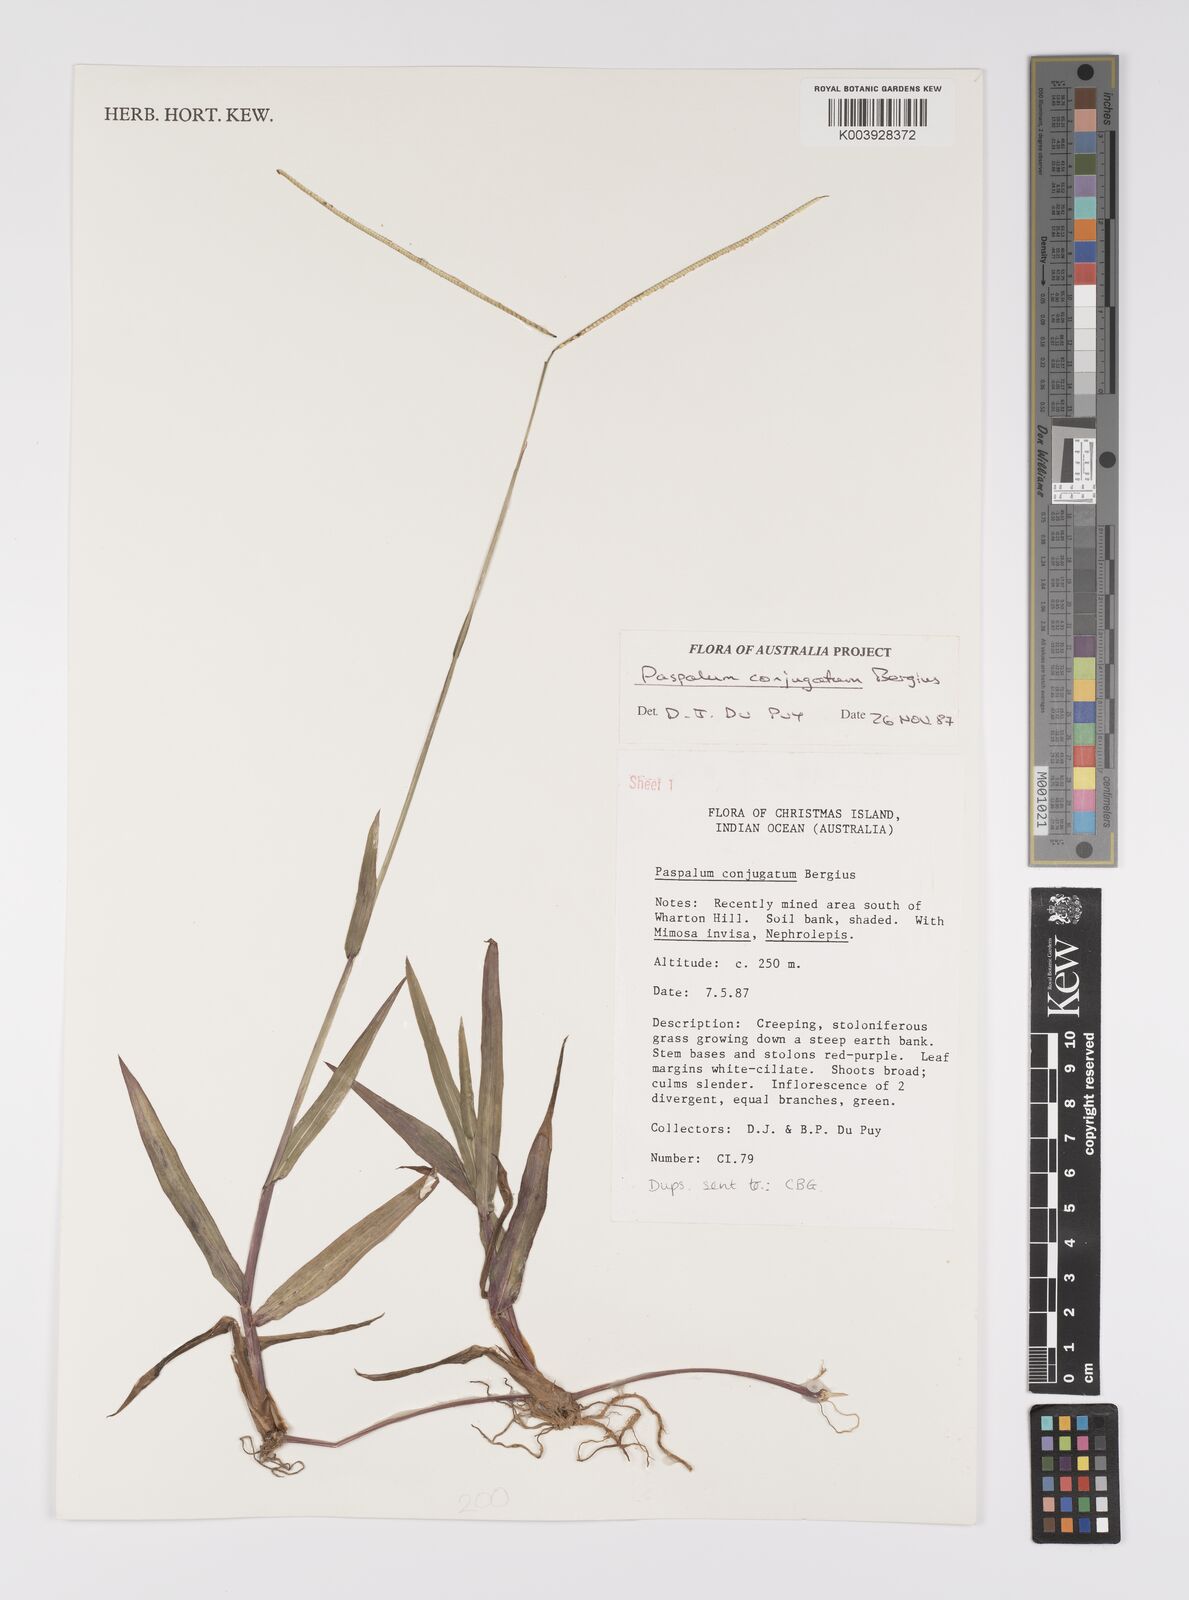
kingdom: Plantae
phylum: Tracheophyta
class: Liliopsida
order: Poales
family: Poaceae
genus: Paspalum
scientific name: Paspalum conjugatum
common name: Hilograss
